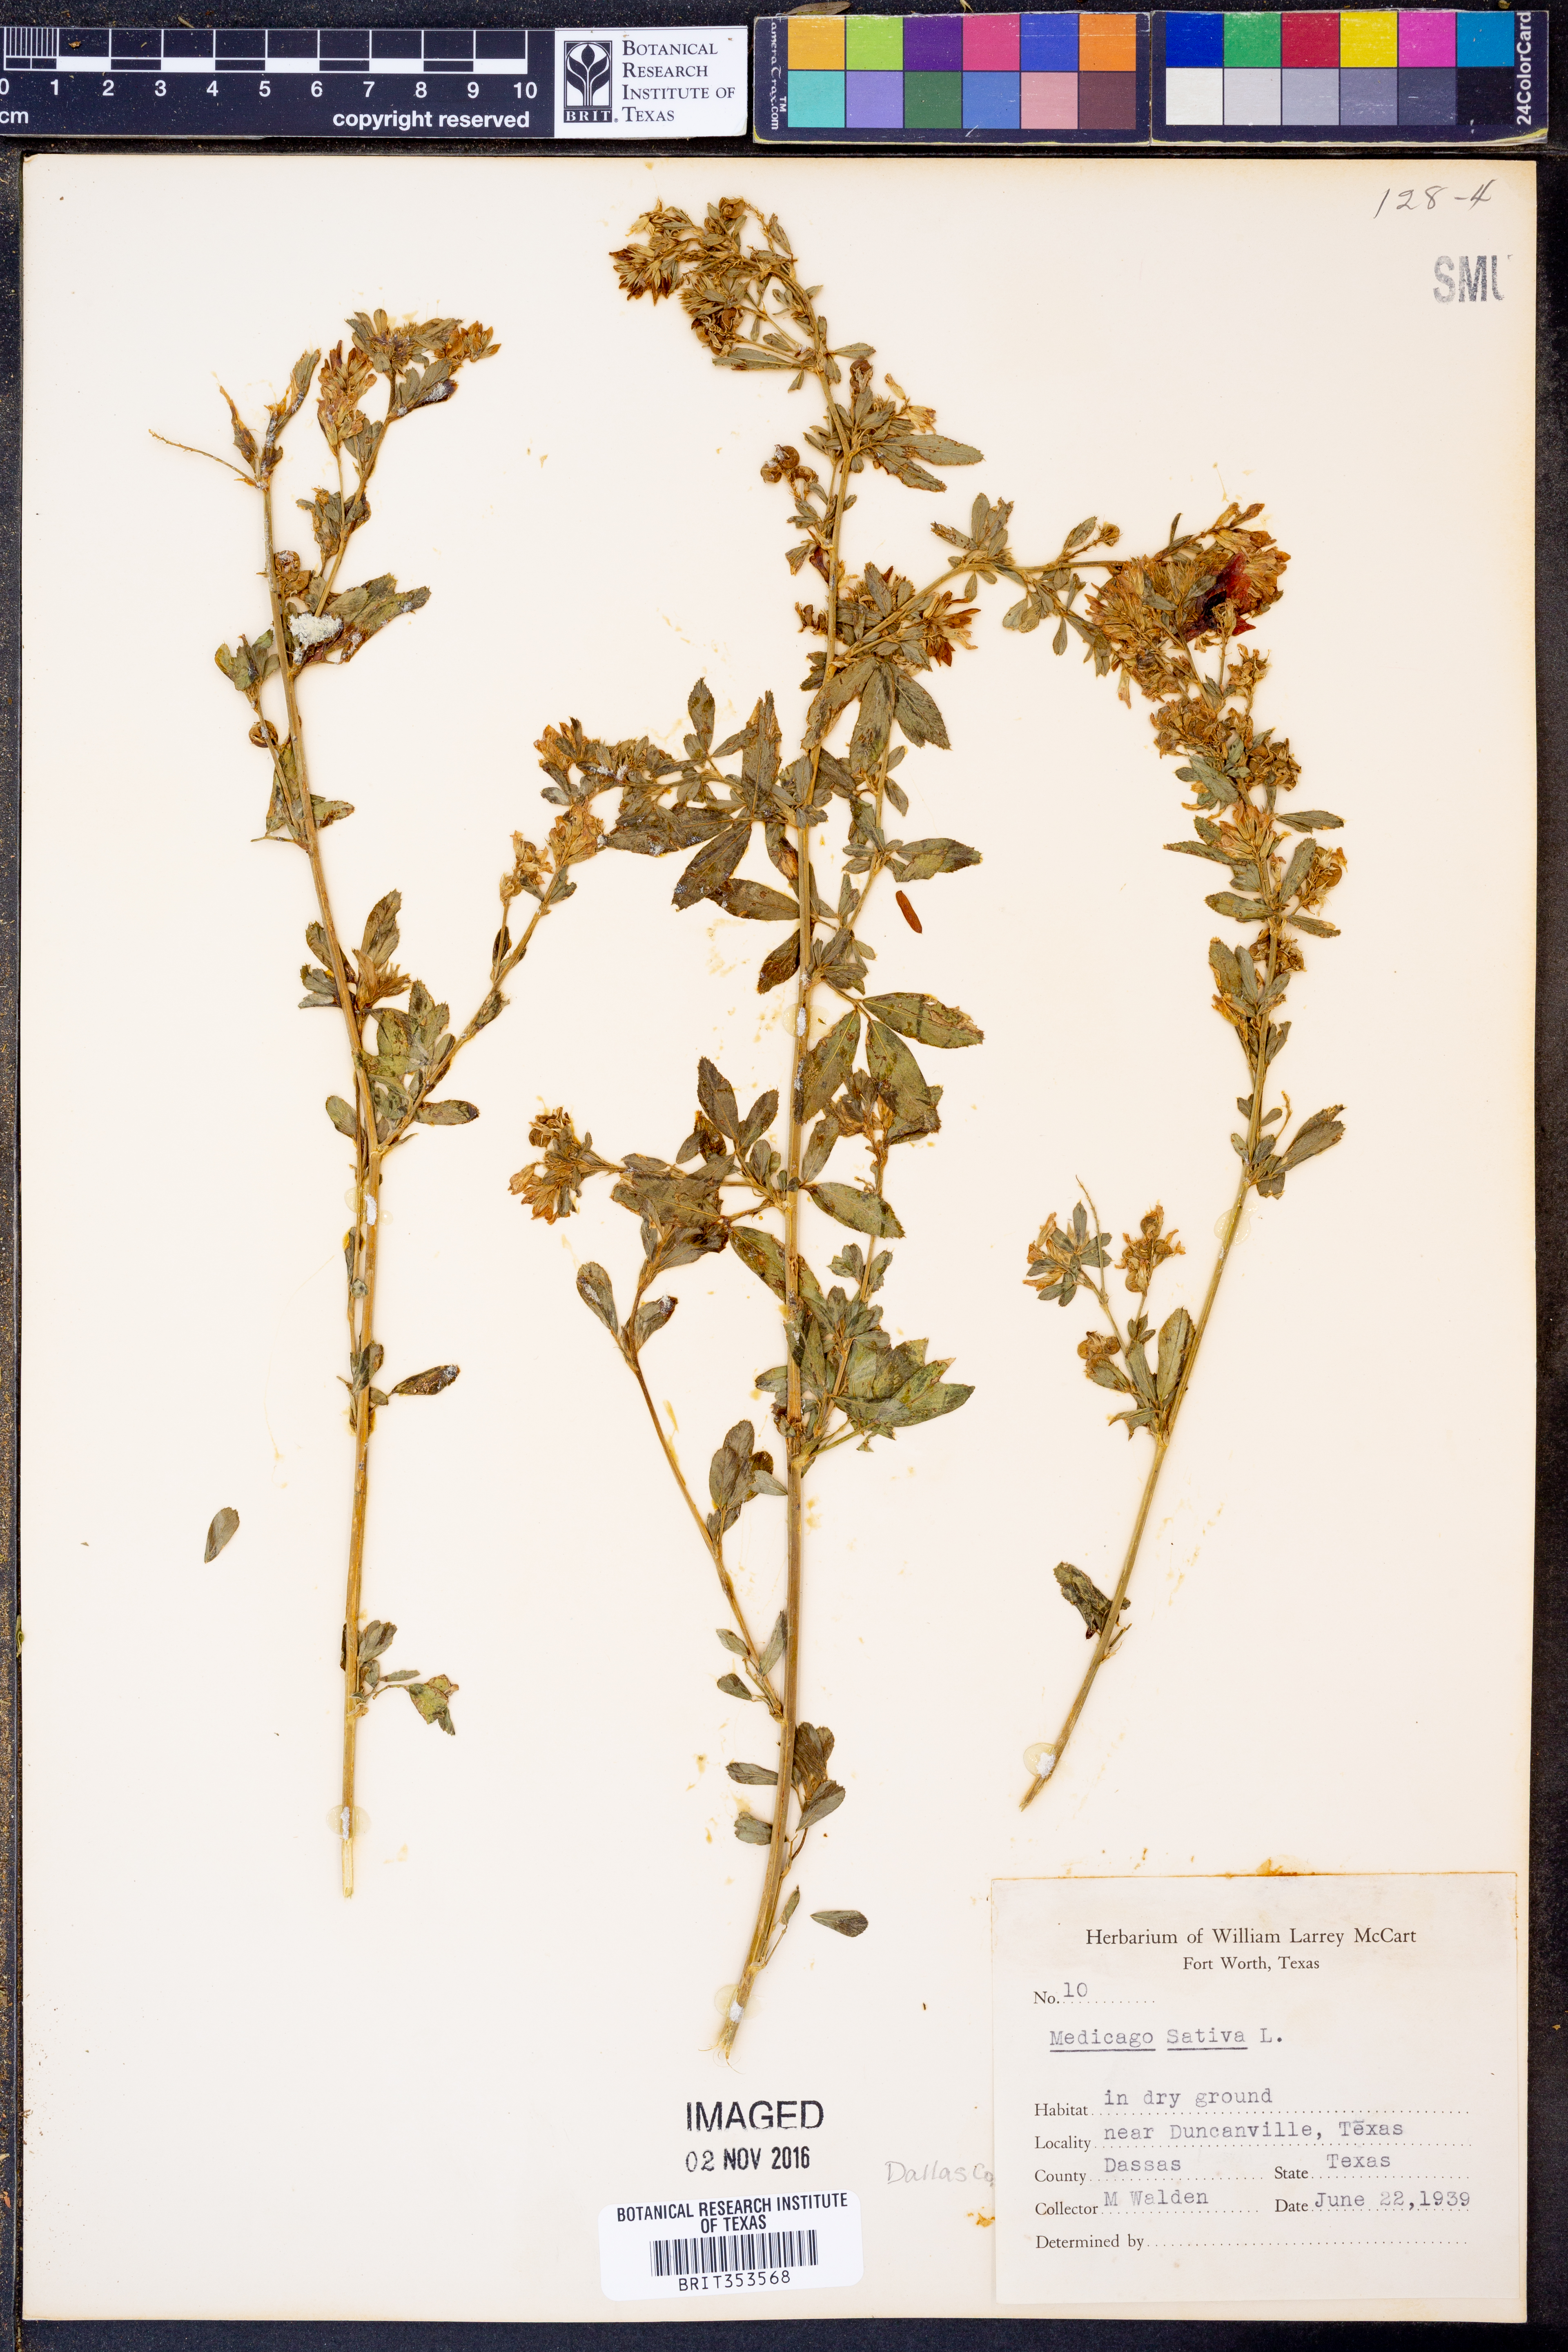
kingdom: Plantae
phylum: Tracheophyta
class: Magnoliopsida
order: Fabales
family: Fabaceae
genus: Medicago
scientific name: Medicago sativa
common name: Alfalfa
